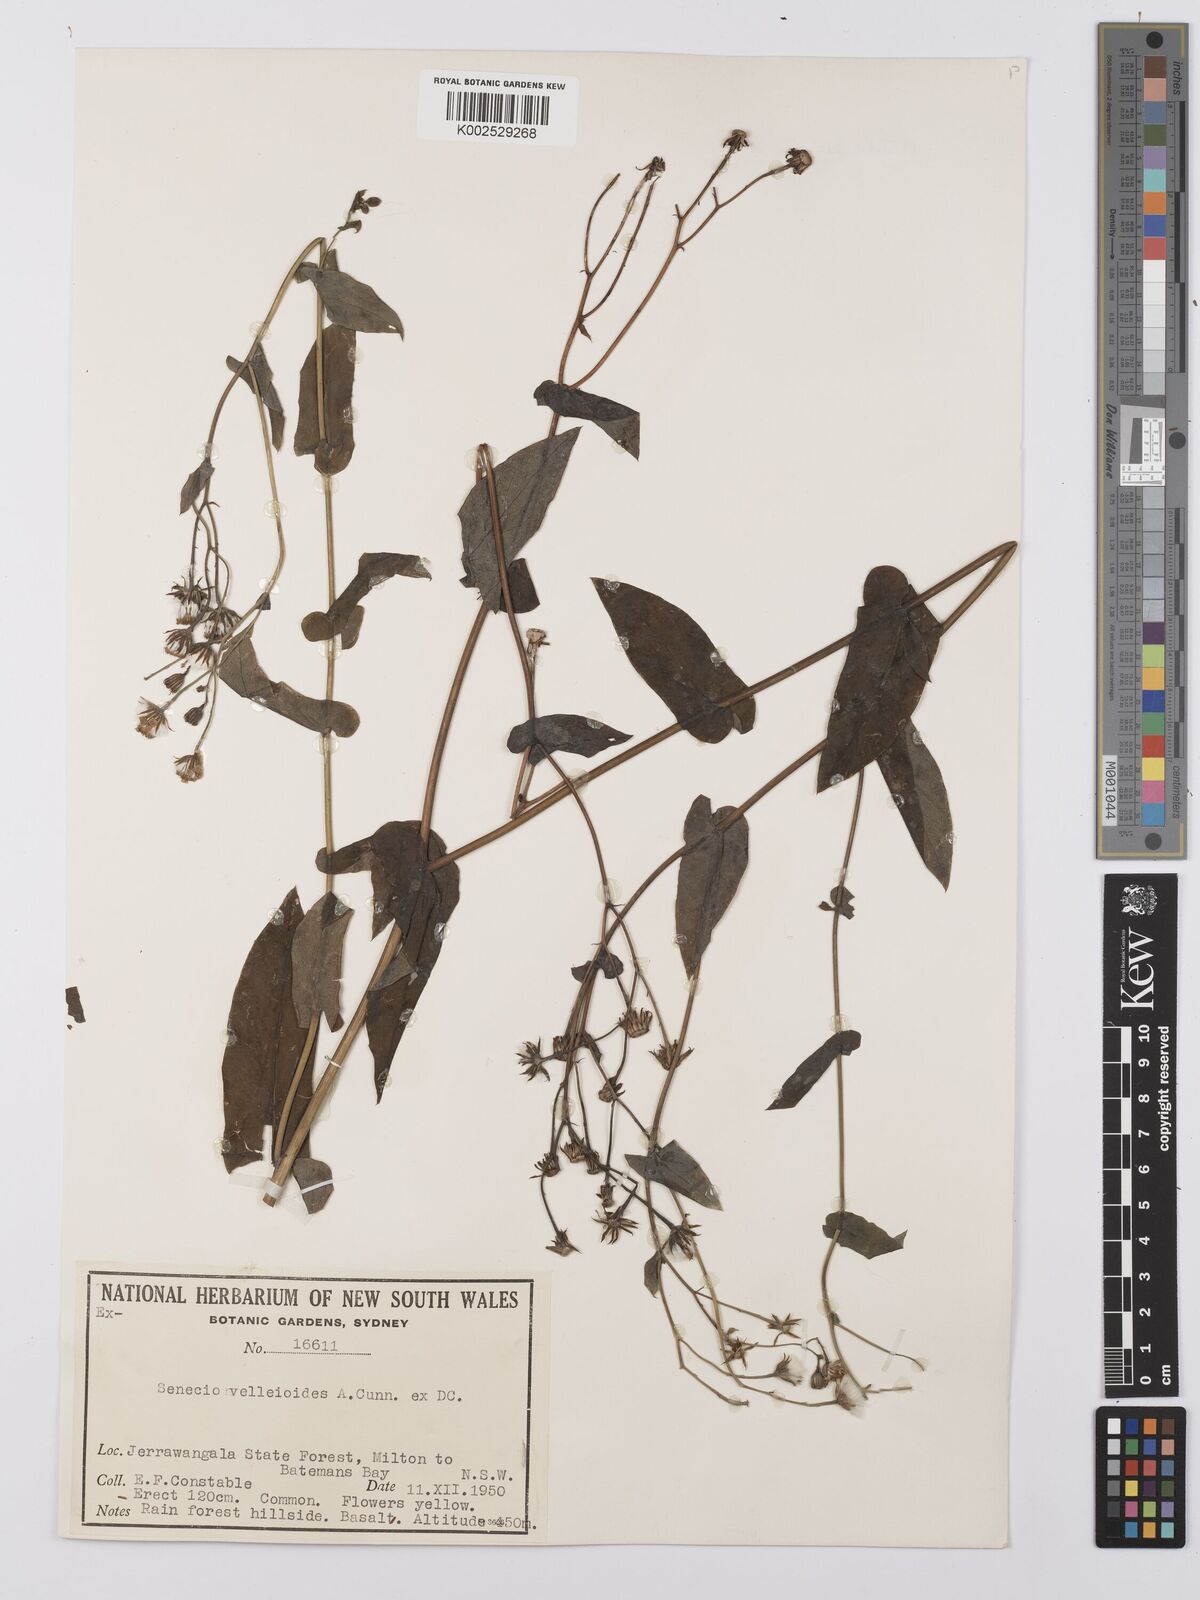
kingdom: Plantae
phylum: Tracheophyta
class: Magnoliopsida
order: Asterales
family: Asteraceae
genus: Lordhowea
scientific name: Lordhowea velleioides
